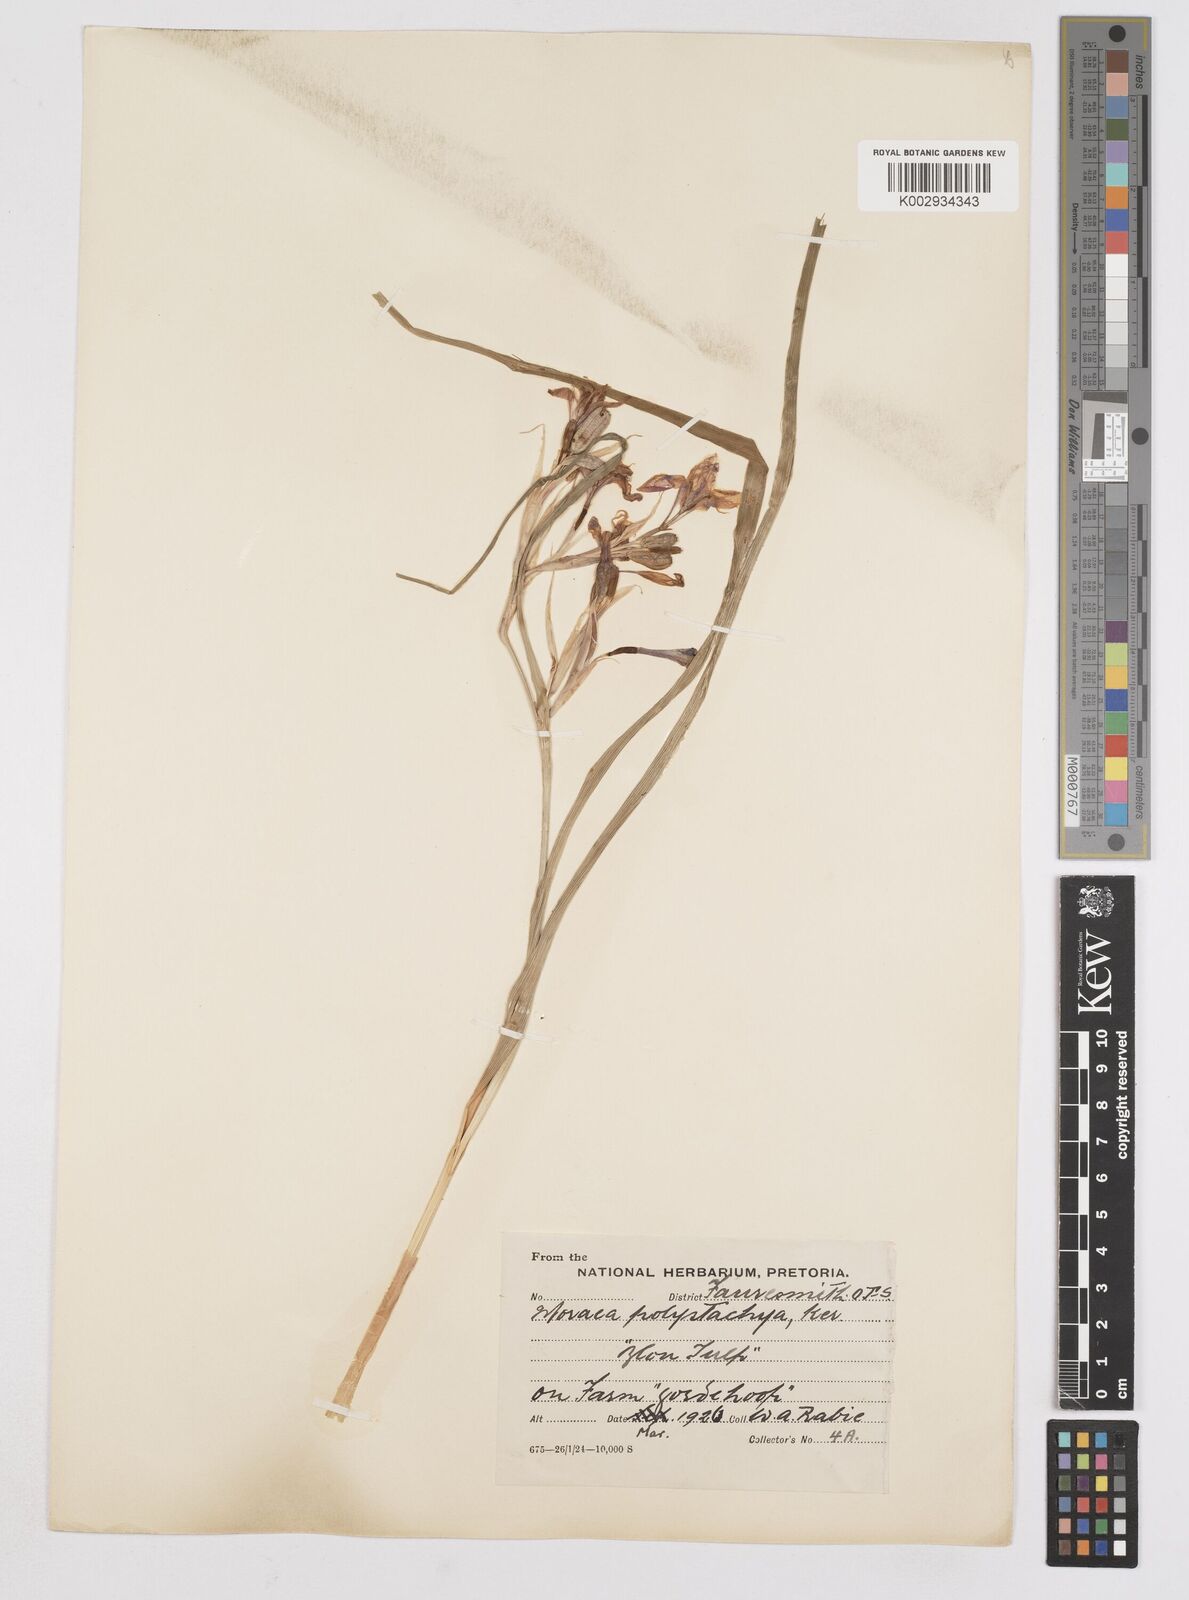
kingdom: Plantae
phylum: Tracheophyta
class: Liliopsida
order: Asparagales
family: Iridaceae
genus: Moraea
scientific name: Moraea polystachya
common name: Blue-tulip
